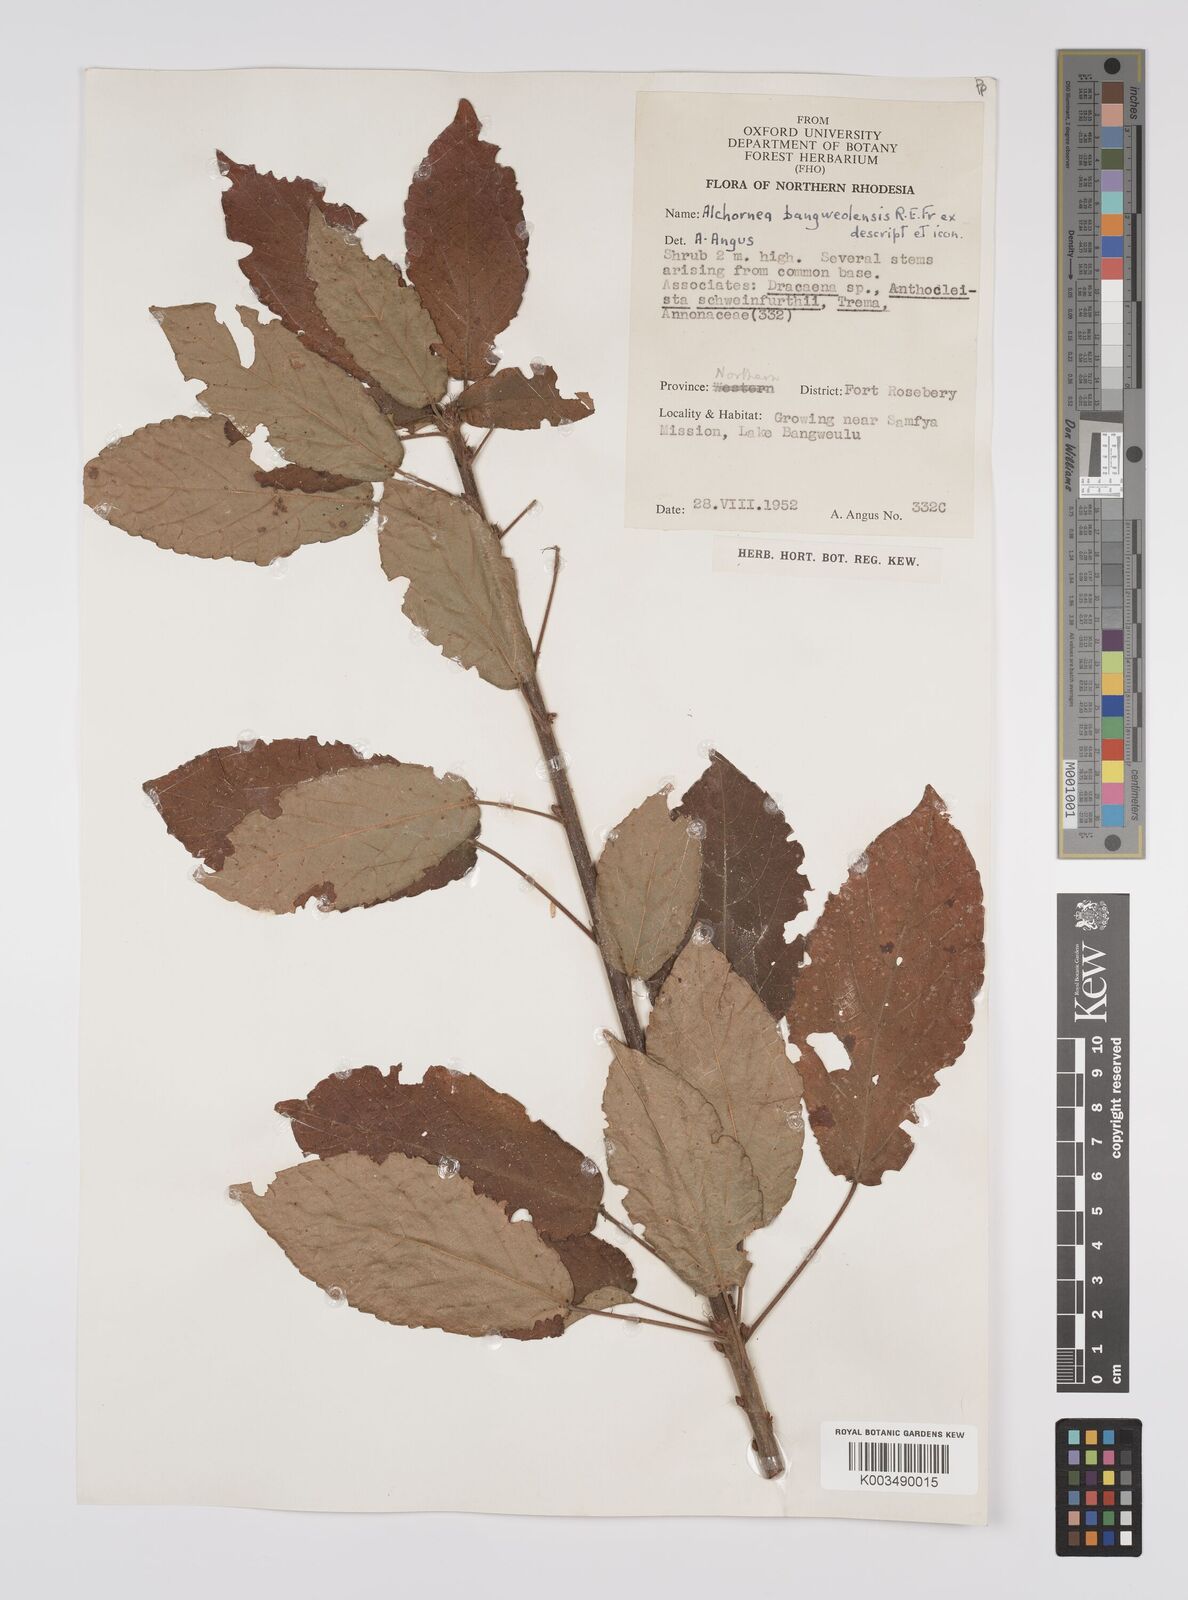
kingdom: Plantae
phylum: Tracheophyta
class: Magnoliopsida
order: Malpighiales
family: Euphorbiaceae
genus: Alchornea
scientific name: Alchornea yambuyaensis
